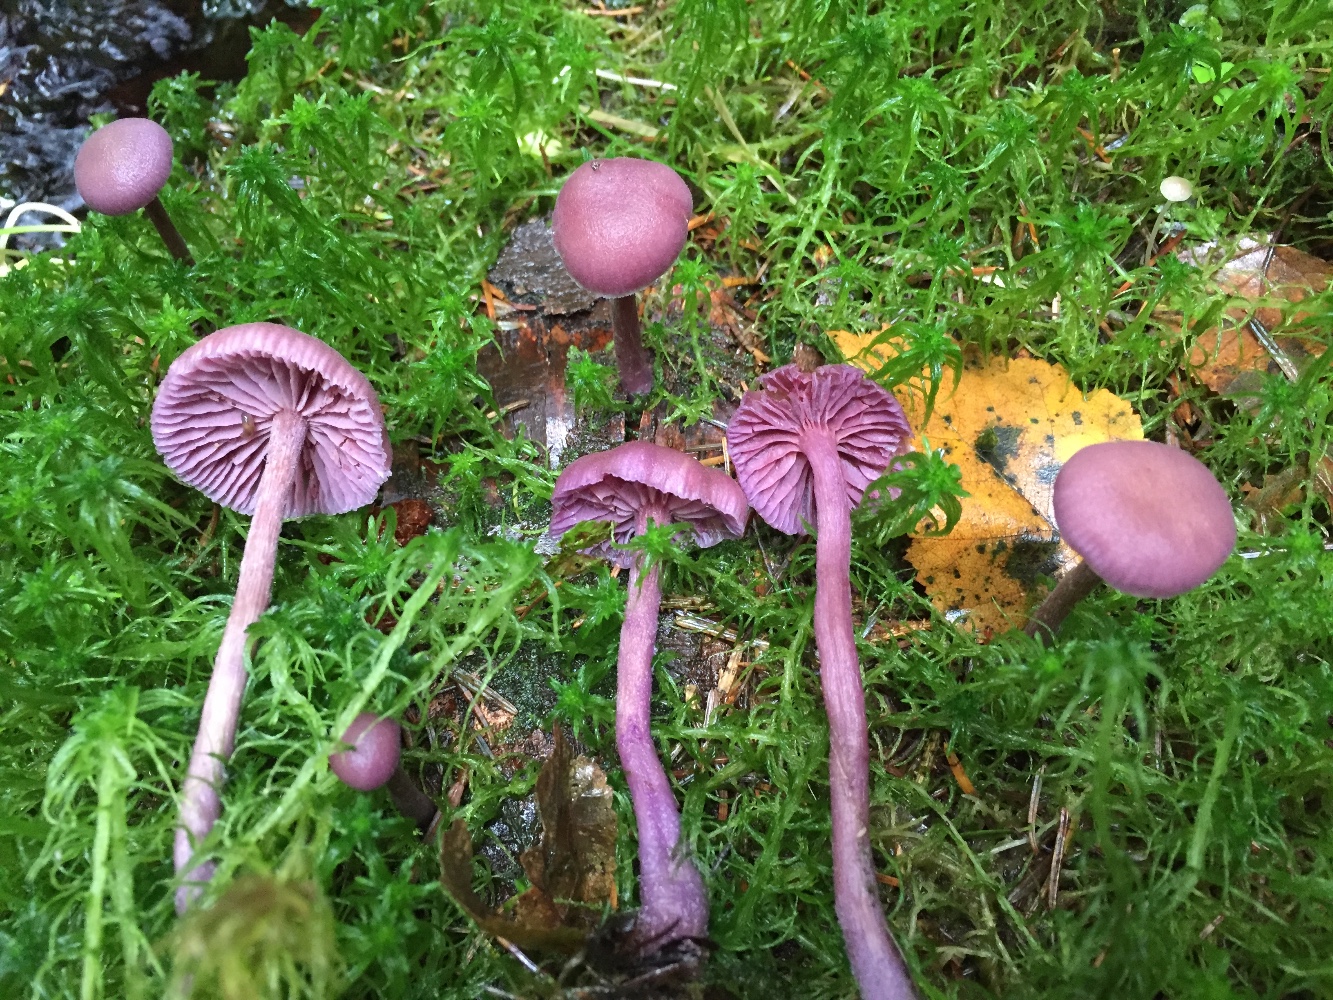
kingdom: Fungi
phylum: Basidiomycota
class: Agaricomycetes
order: Agaricales
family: Hydnangiaceae
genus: Laccaria
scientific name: Laccaria amethystina
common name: violet ametysthat
